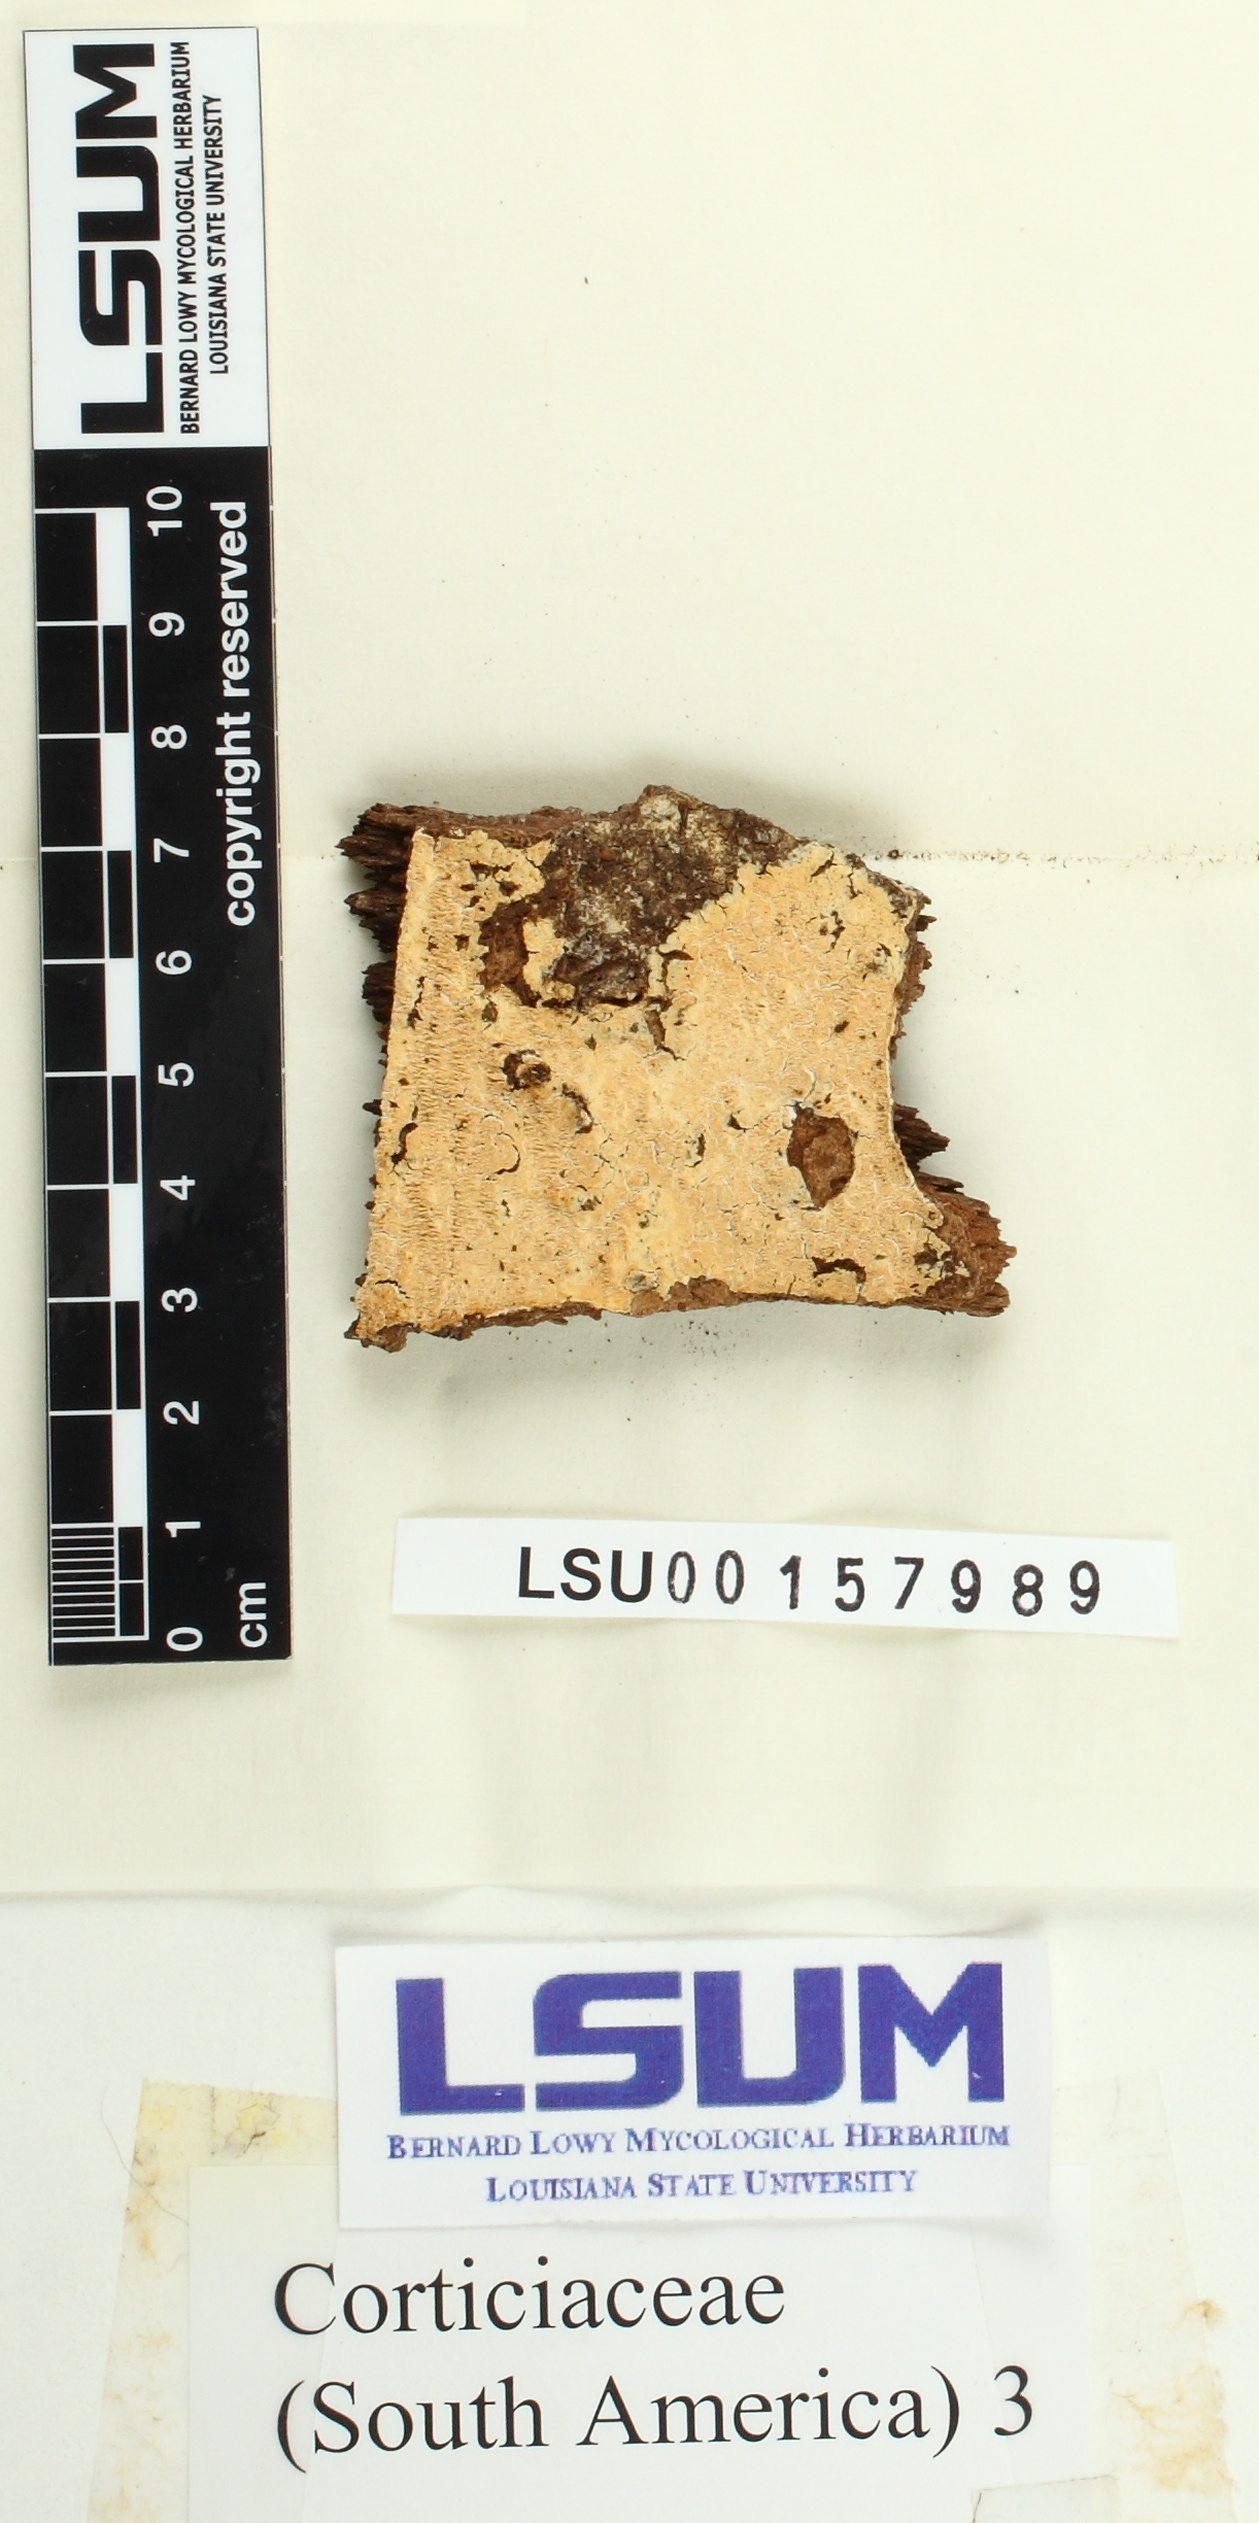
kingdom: Fungi
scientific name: Fungi
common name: Fungi
